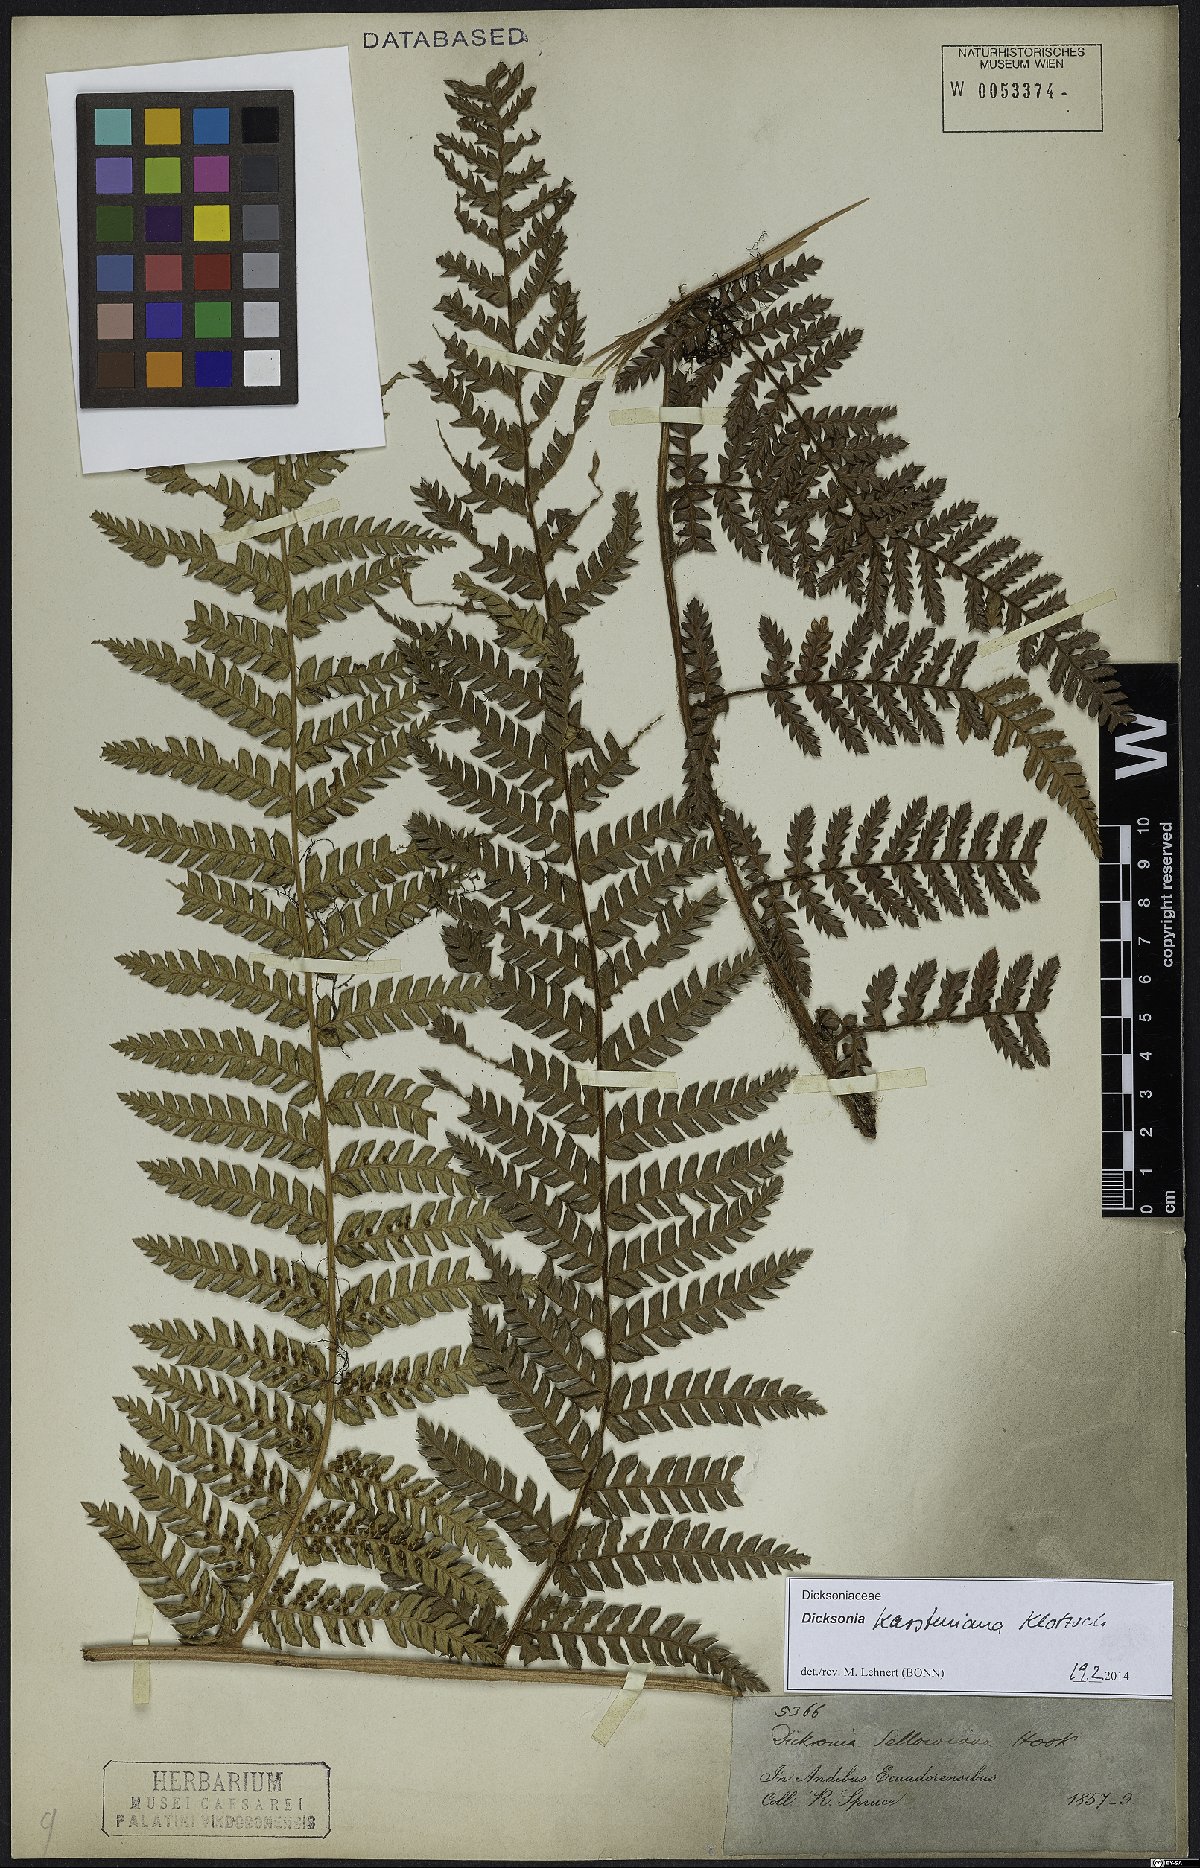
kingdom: Plantae
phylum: Tracheophyta
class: Polypodiopsida
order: Cyatheales
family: Dicksoniaceae
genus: Dicksonia
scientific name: Dicksonia karsteniana
